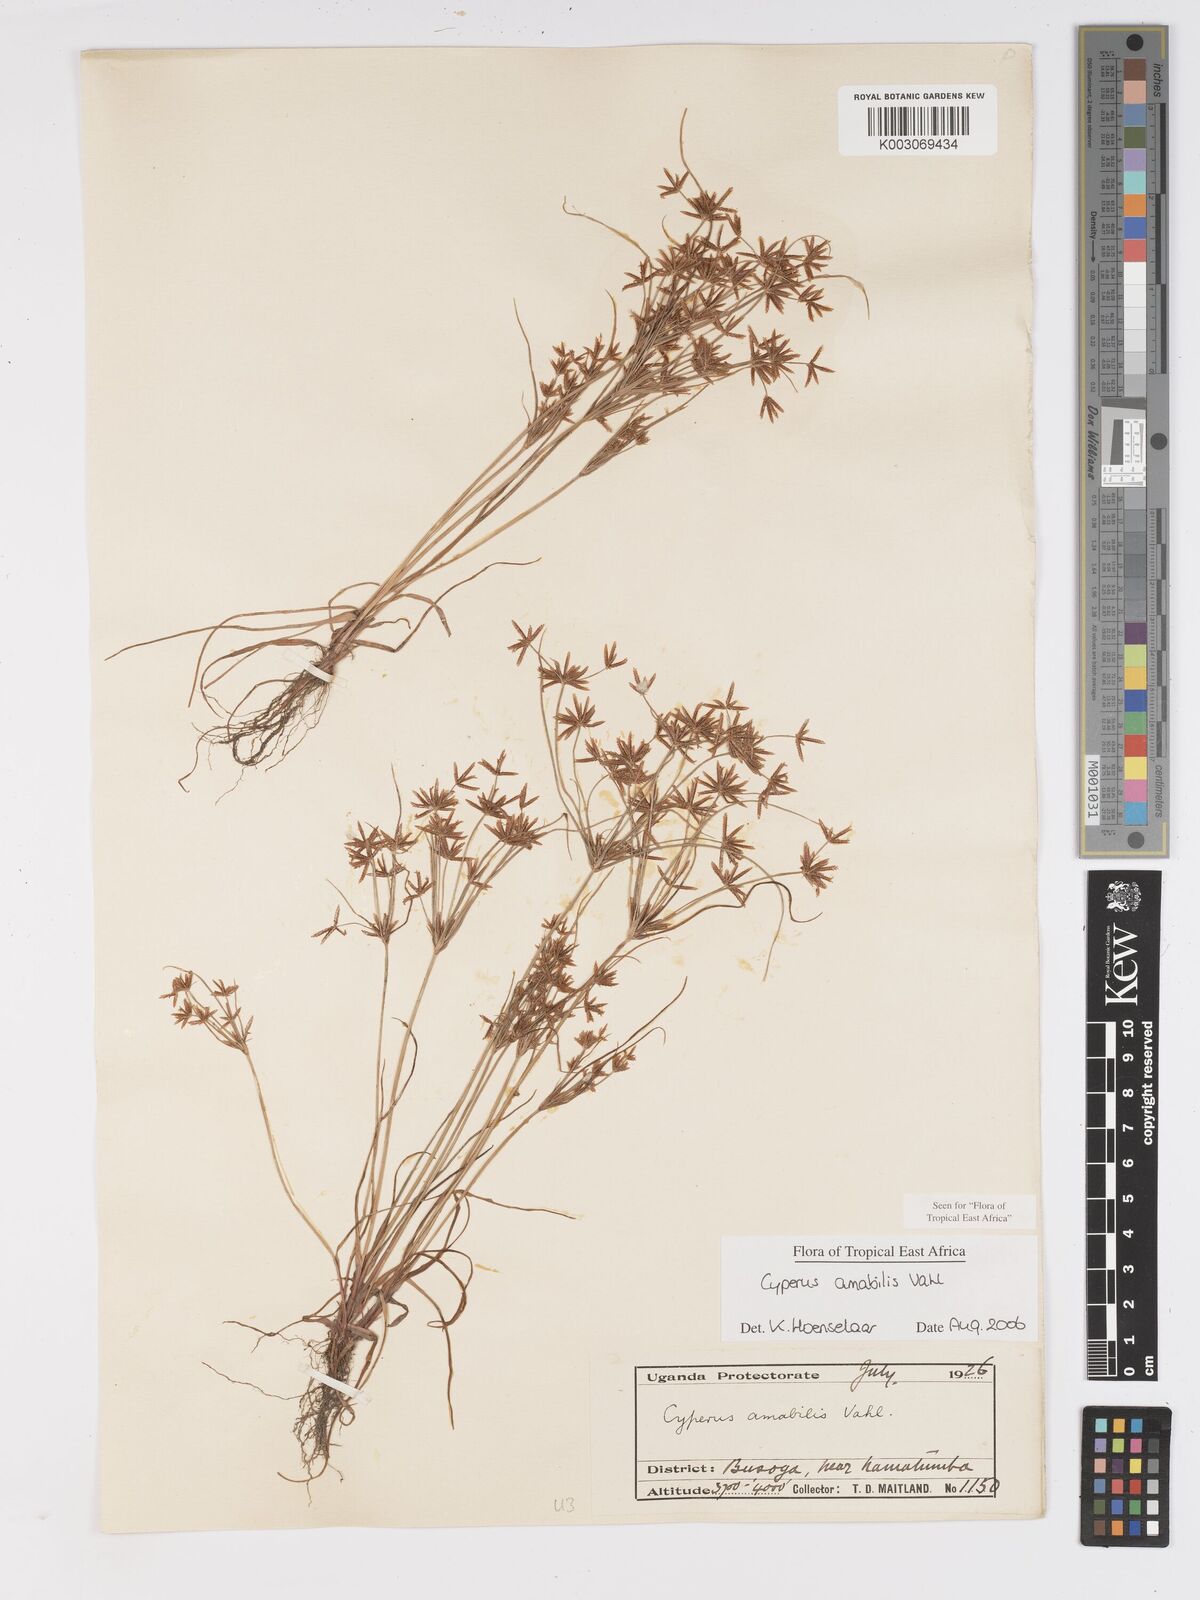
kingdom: Plantae
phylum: Tracheophyta
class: Liliopsida
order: Poales
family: Cyperaceae
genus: Cyperus
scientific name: Cyperus amabilis
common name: Foothill flat sedge
